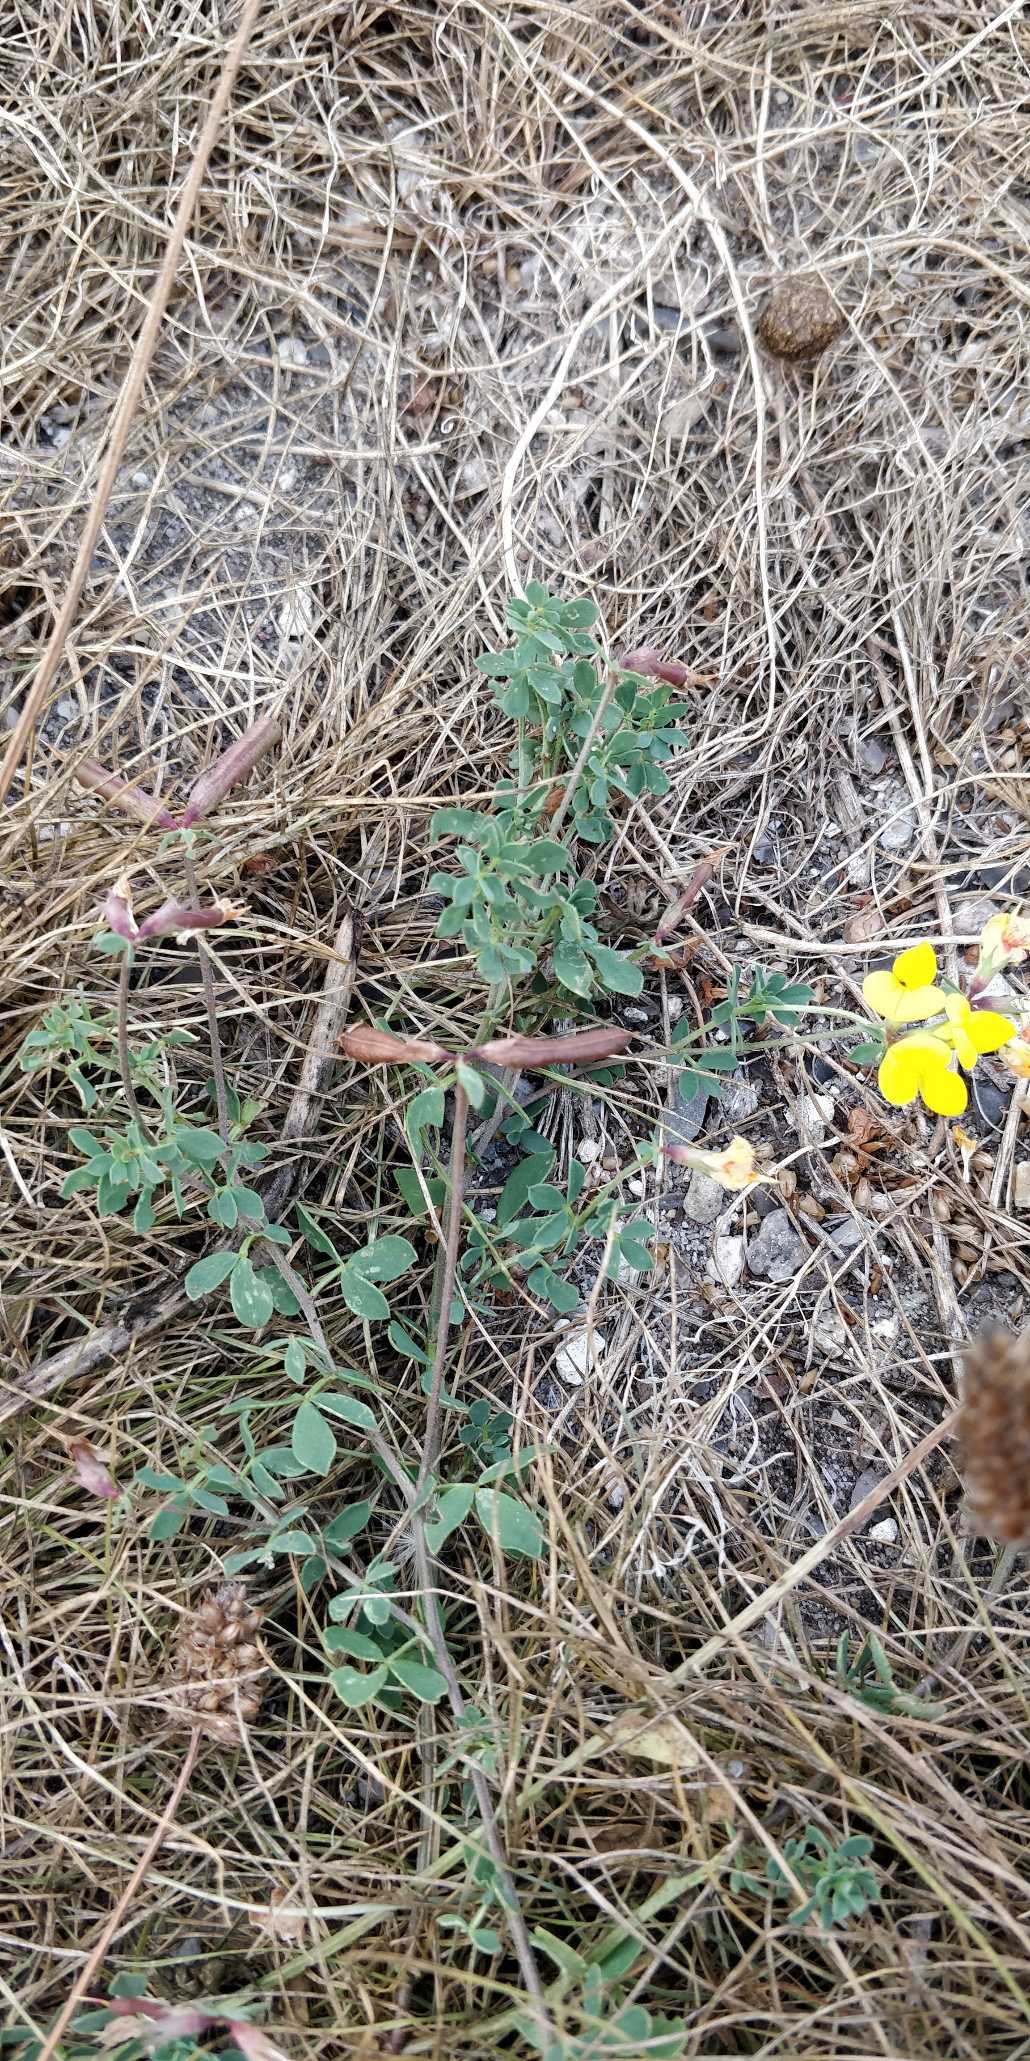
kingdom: Plantae
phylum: Tracheophyta
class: Magnoliopsida
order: Fabales
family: Fabaceae
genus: Lotus
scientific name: Lotus corniculatus
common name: Almindelig kællingetand
